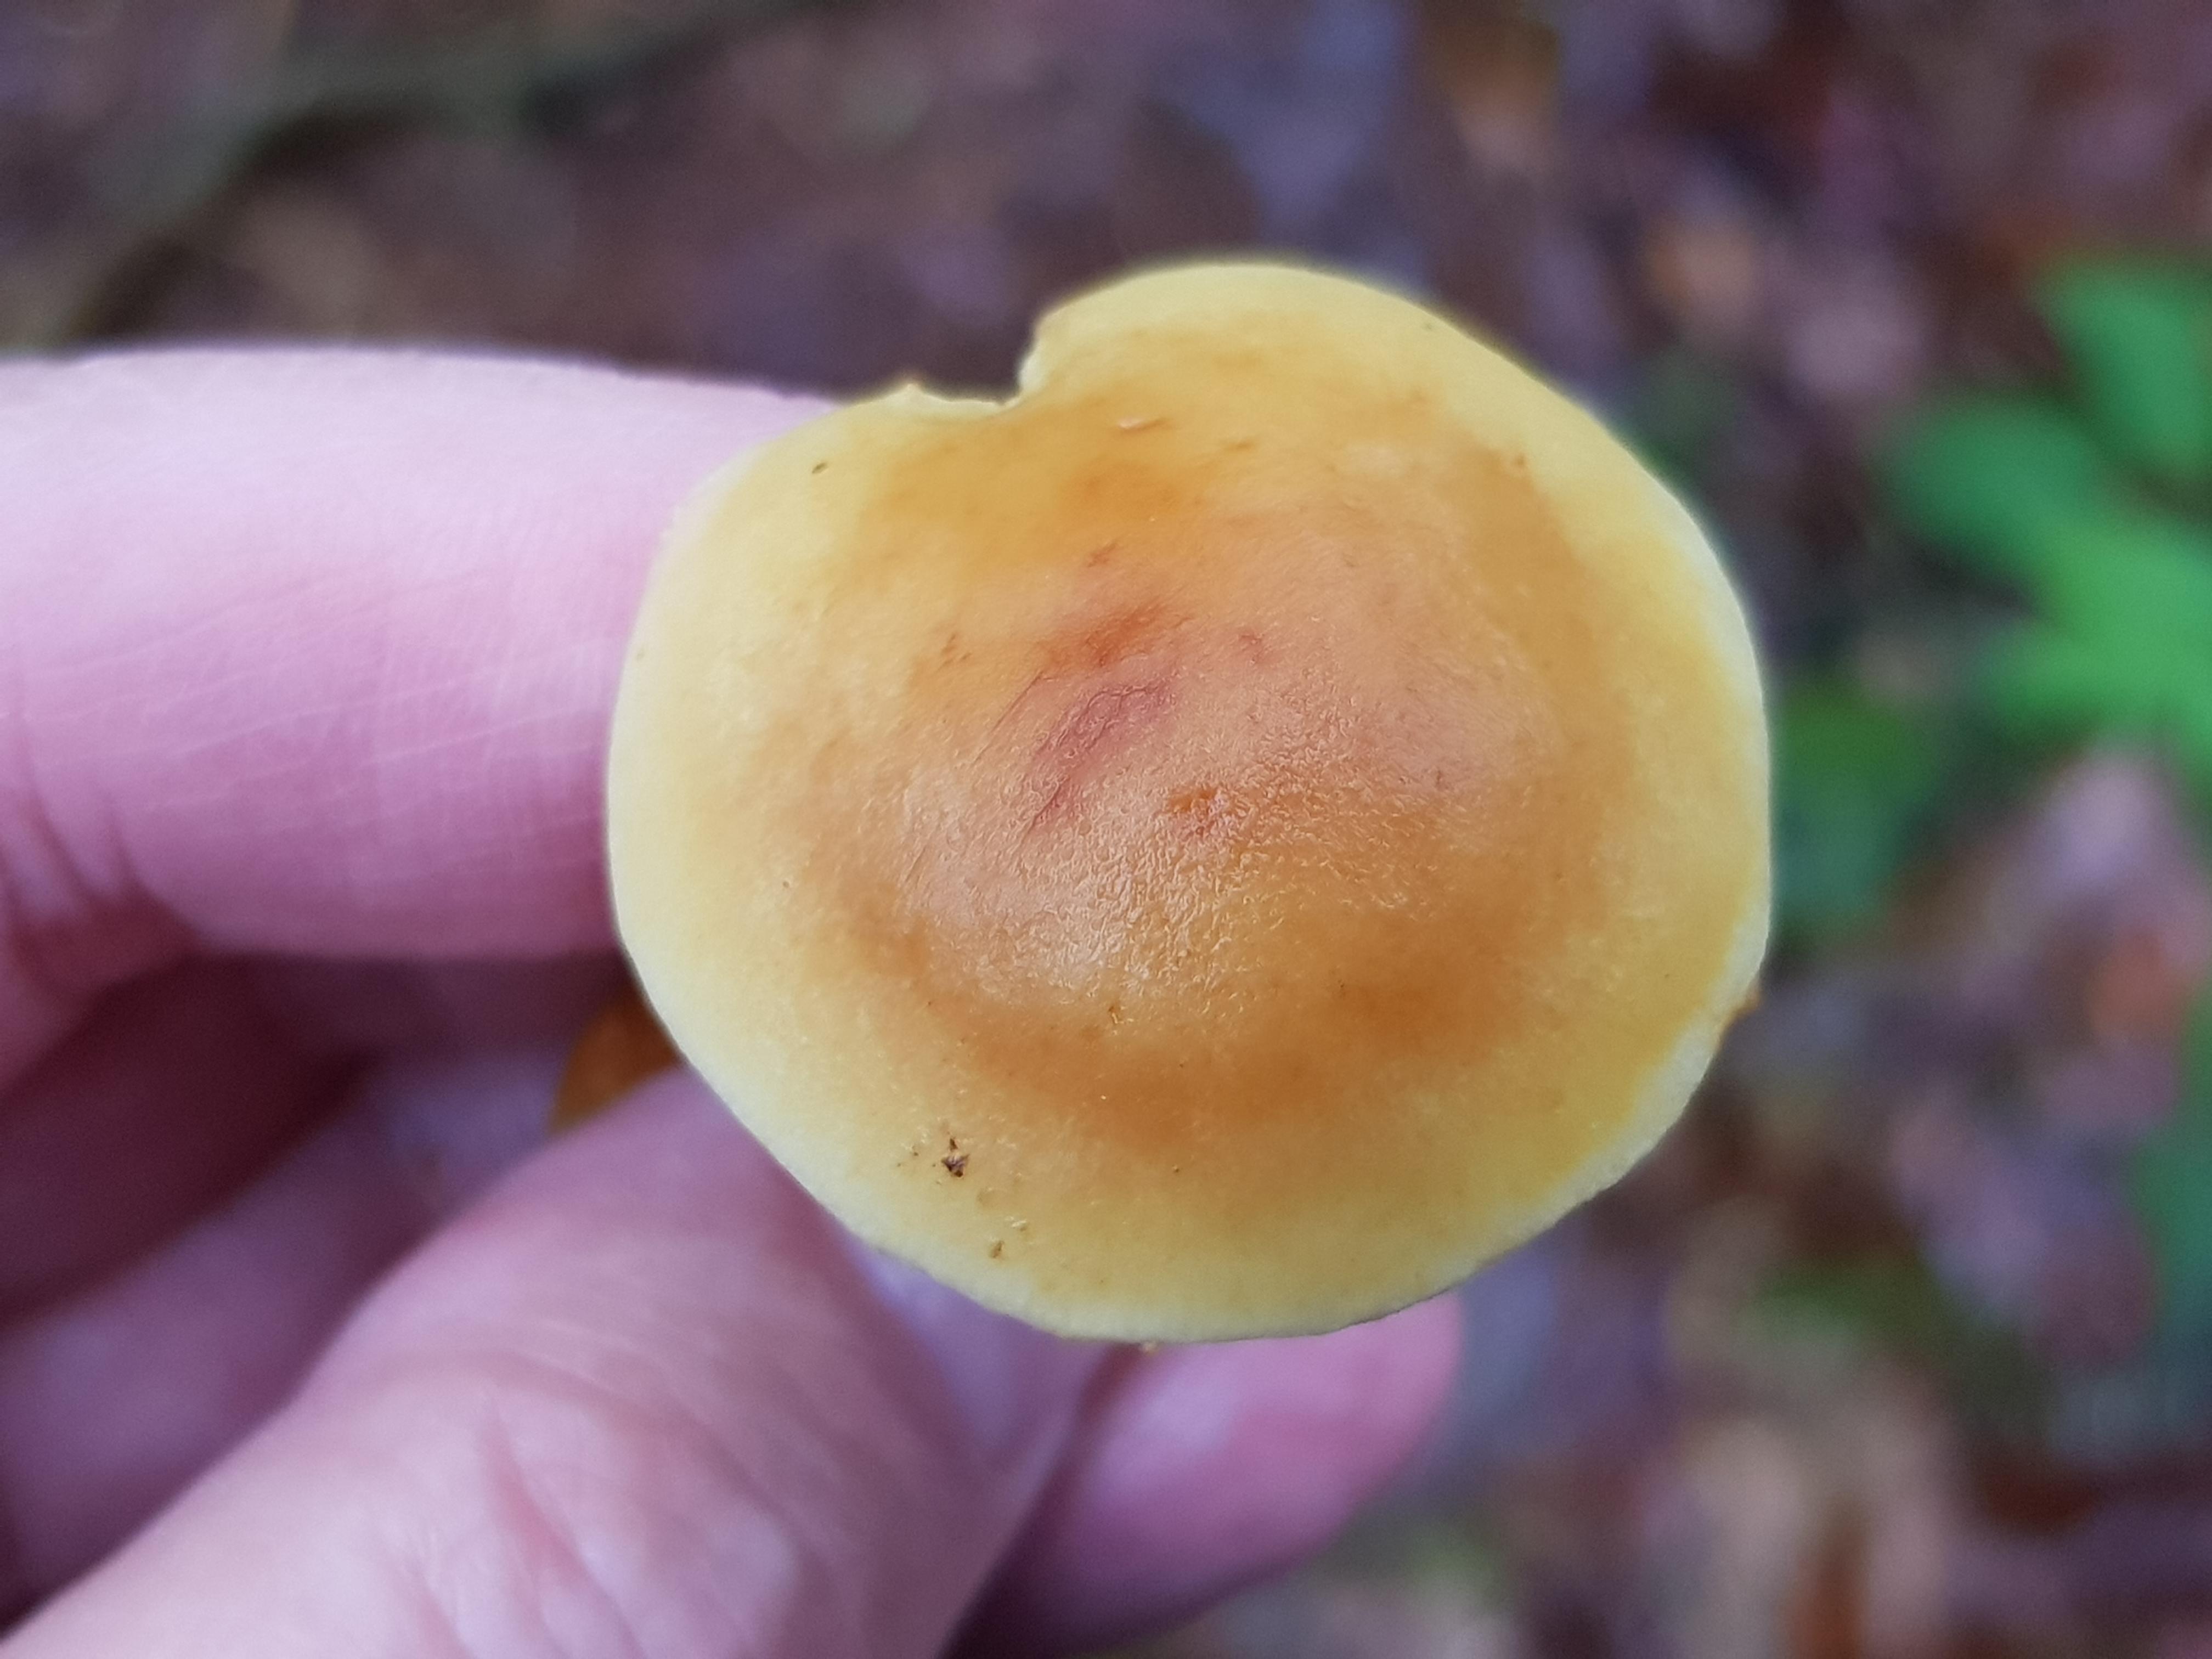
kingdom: Fungi
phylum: Basidiomycota
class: Agaricomycetes
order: Agaricales
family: Strophariaceae
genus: Hypholoma
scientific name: Hypholoma capnoides
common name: gran-svovlhat
